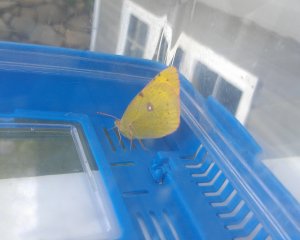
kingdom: Animalia
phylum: Arthropoda
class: Insecta
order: Lepidoptera
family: Pieridae
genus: Colias
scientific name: Colias philodice
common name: Clouded Sulphur
